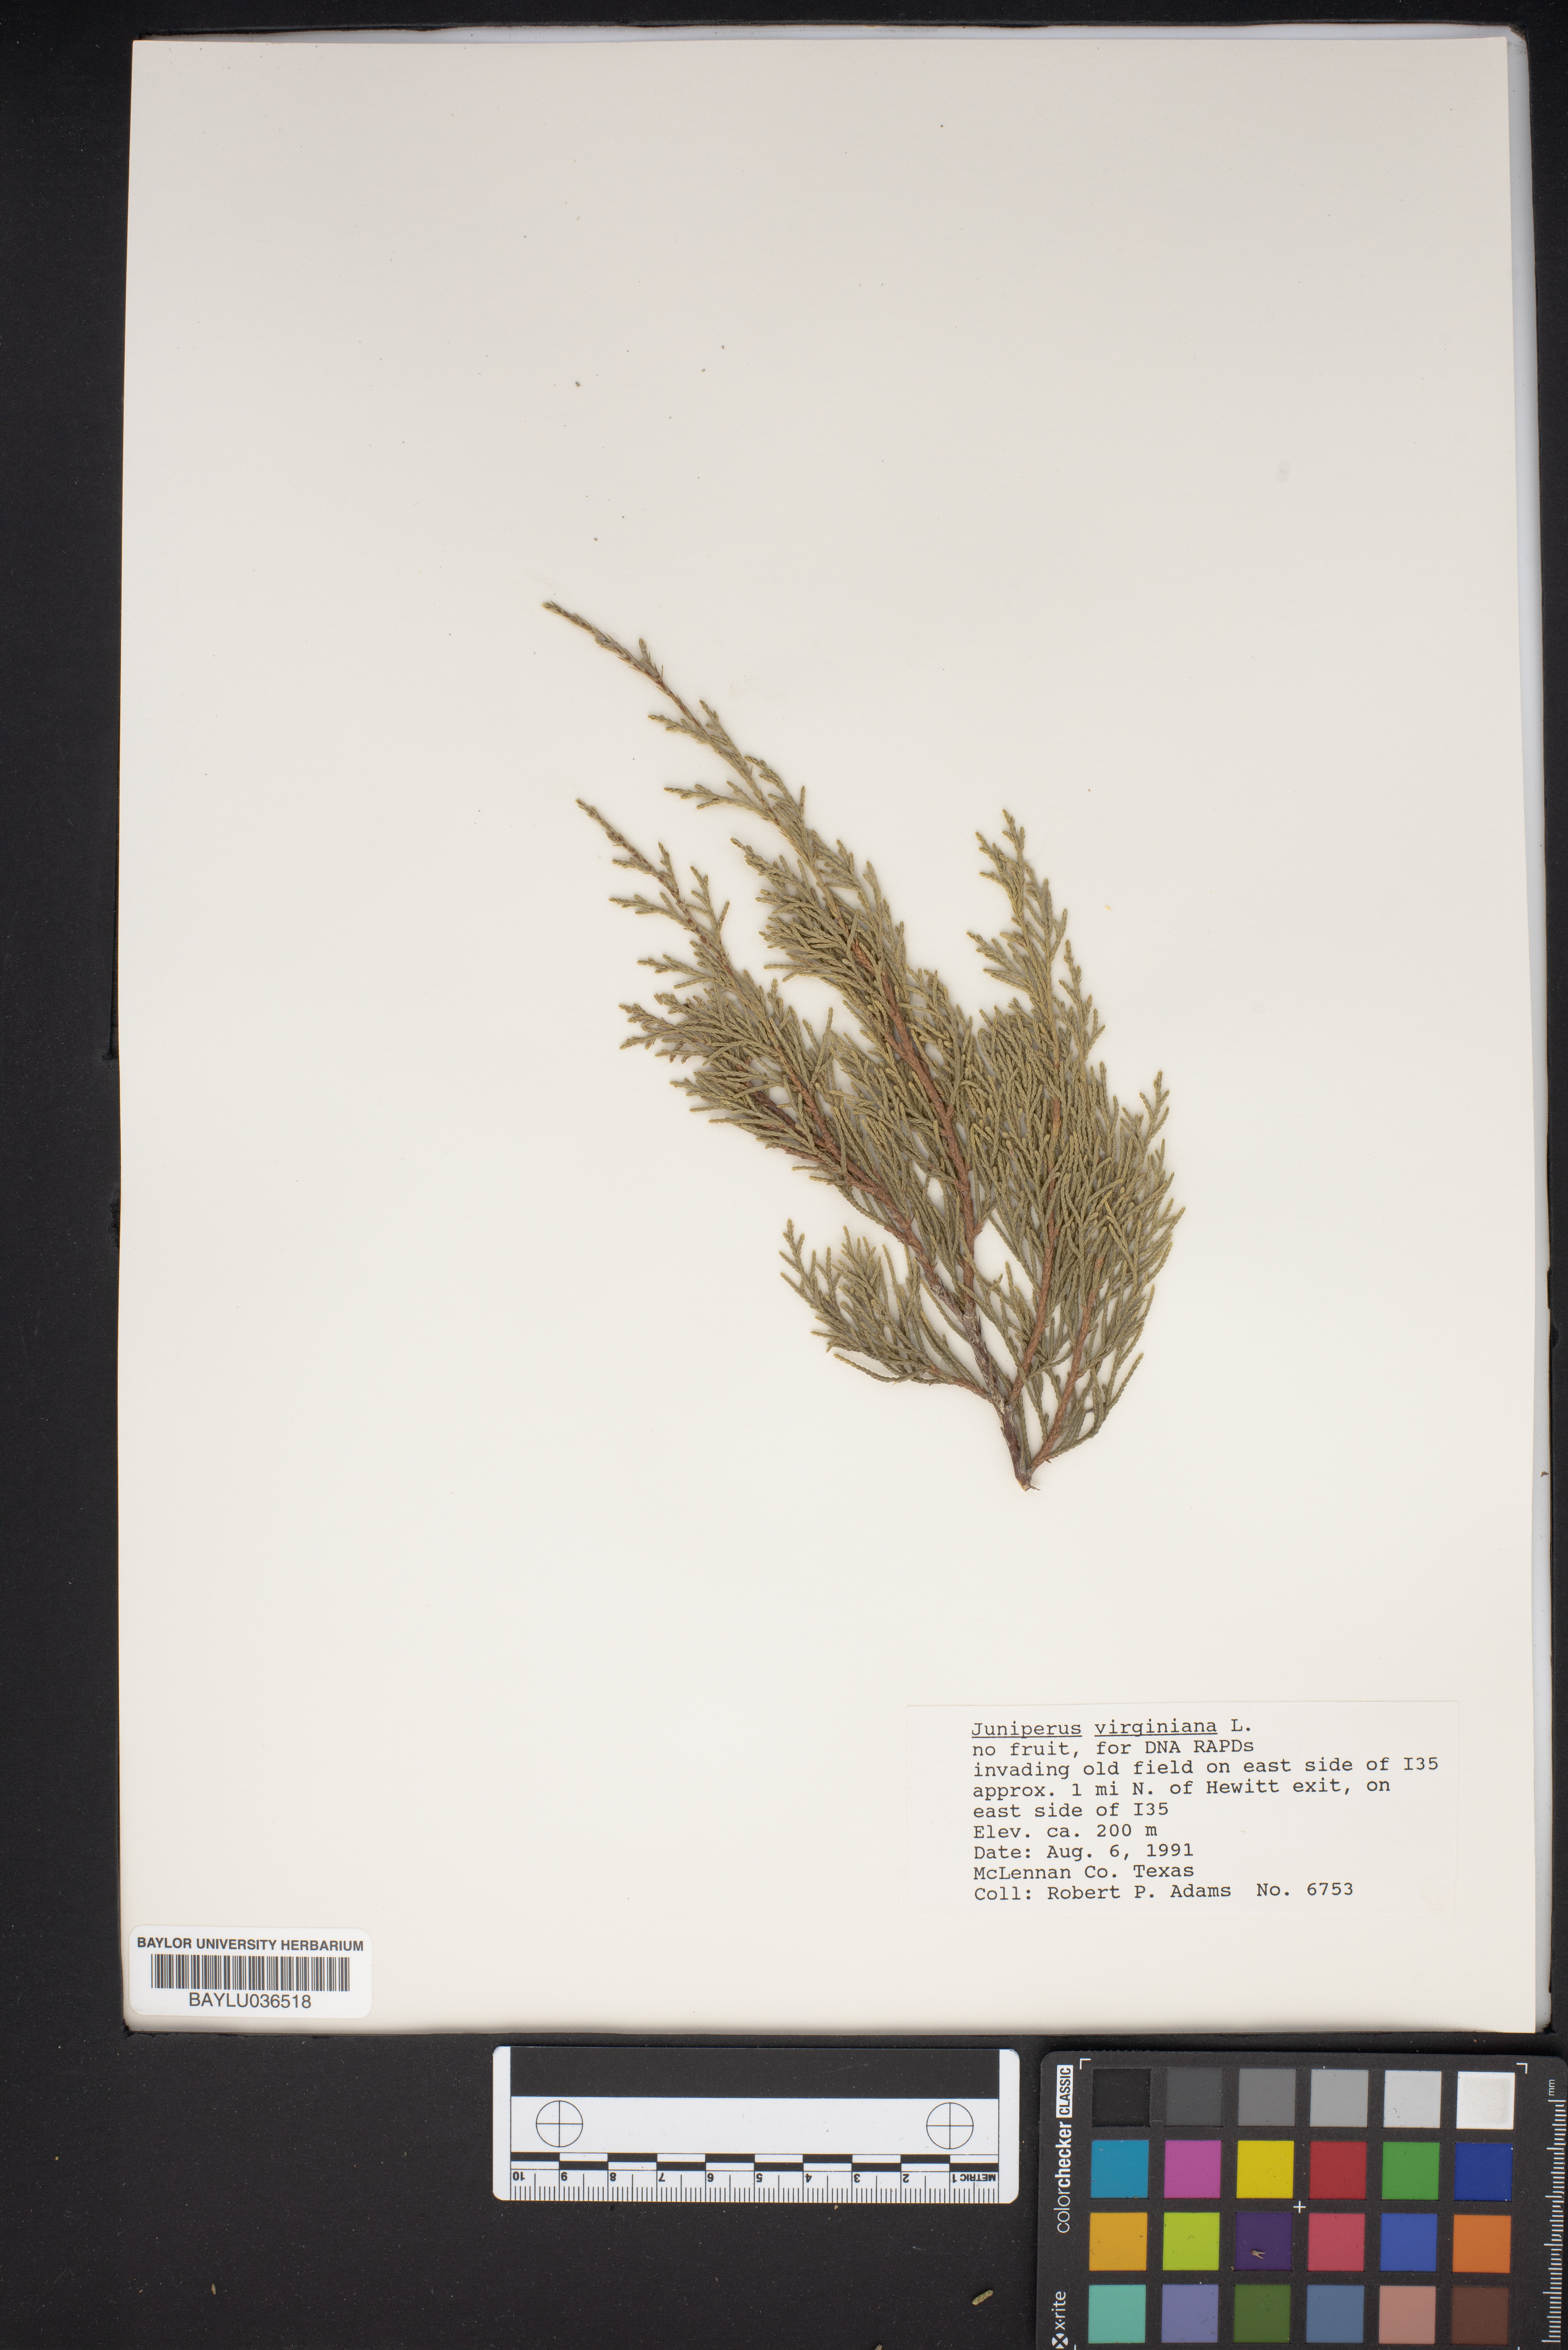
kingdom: Plantae
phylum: Tracheophyta
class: Pinopsida
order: Pinales
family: Cupressaceae
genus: Juniperus
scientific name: Juniperus virginiana
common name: Red juniper
